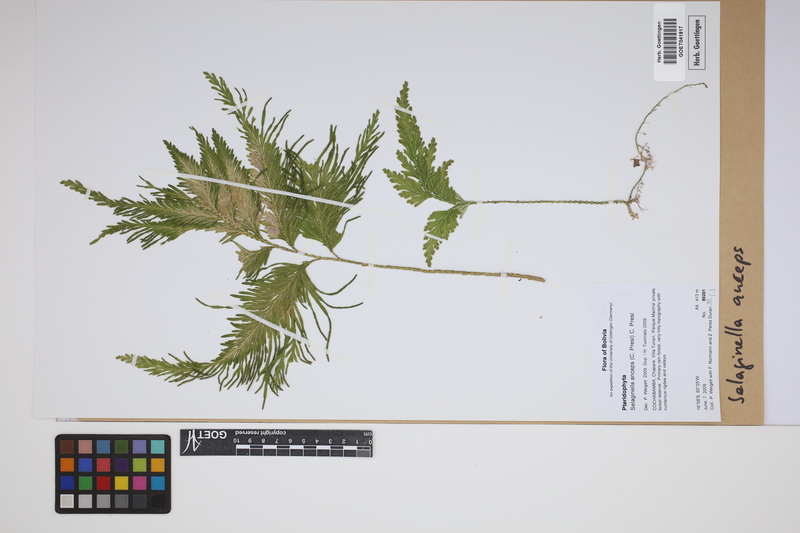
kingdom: Plantae
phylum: Tracheophyta
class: Lycopodiopsida
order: Selaginellales
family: Selaginellaceae
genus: Selaginella
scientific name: Selaginella anceps
